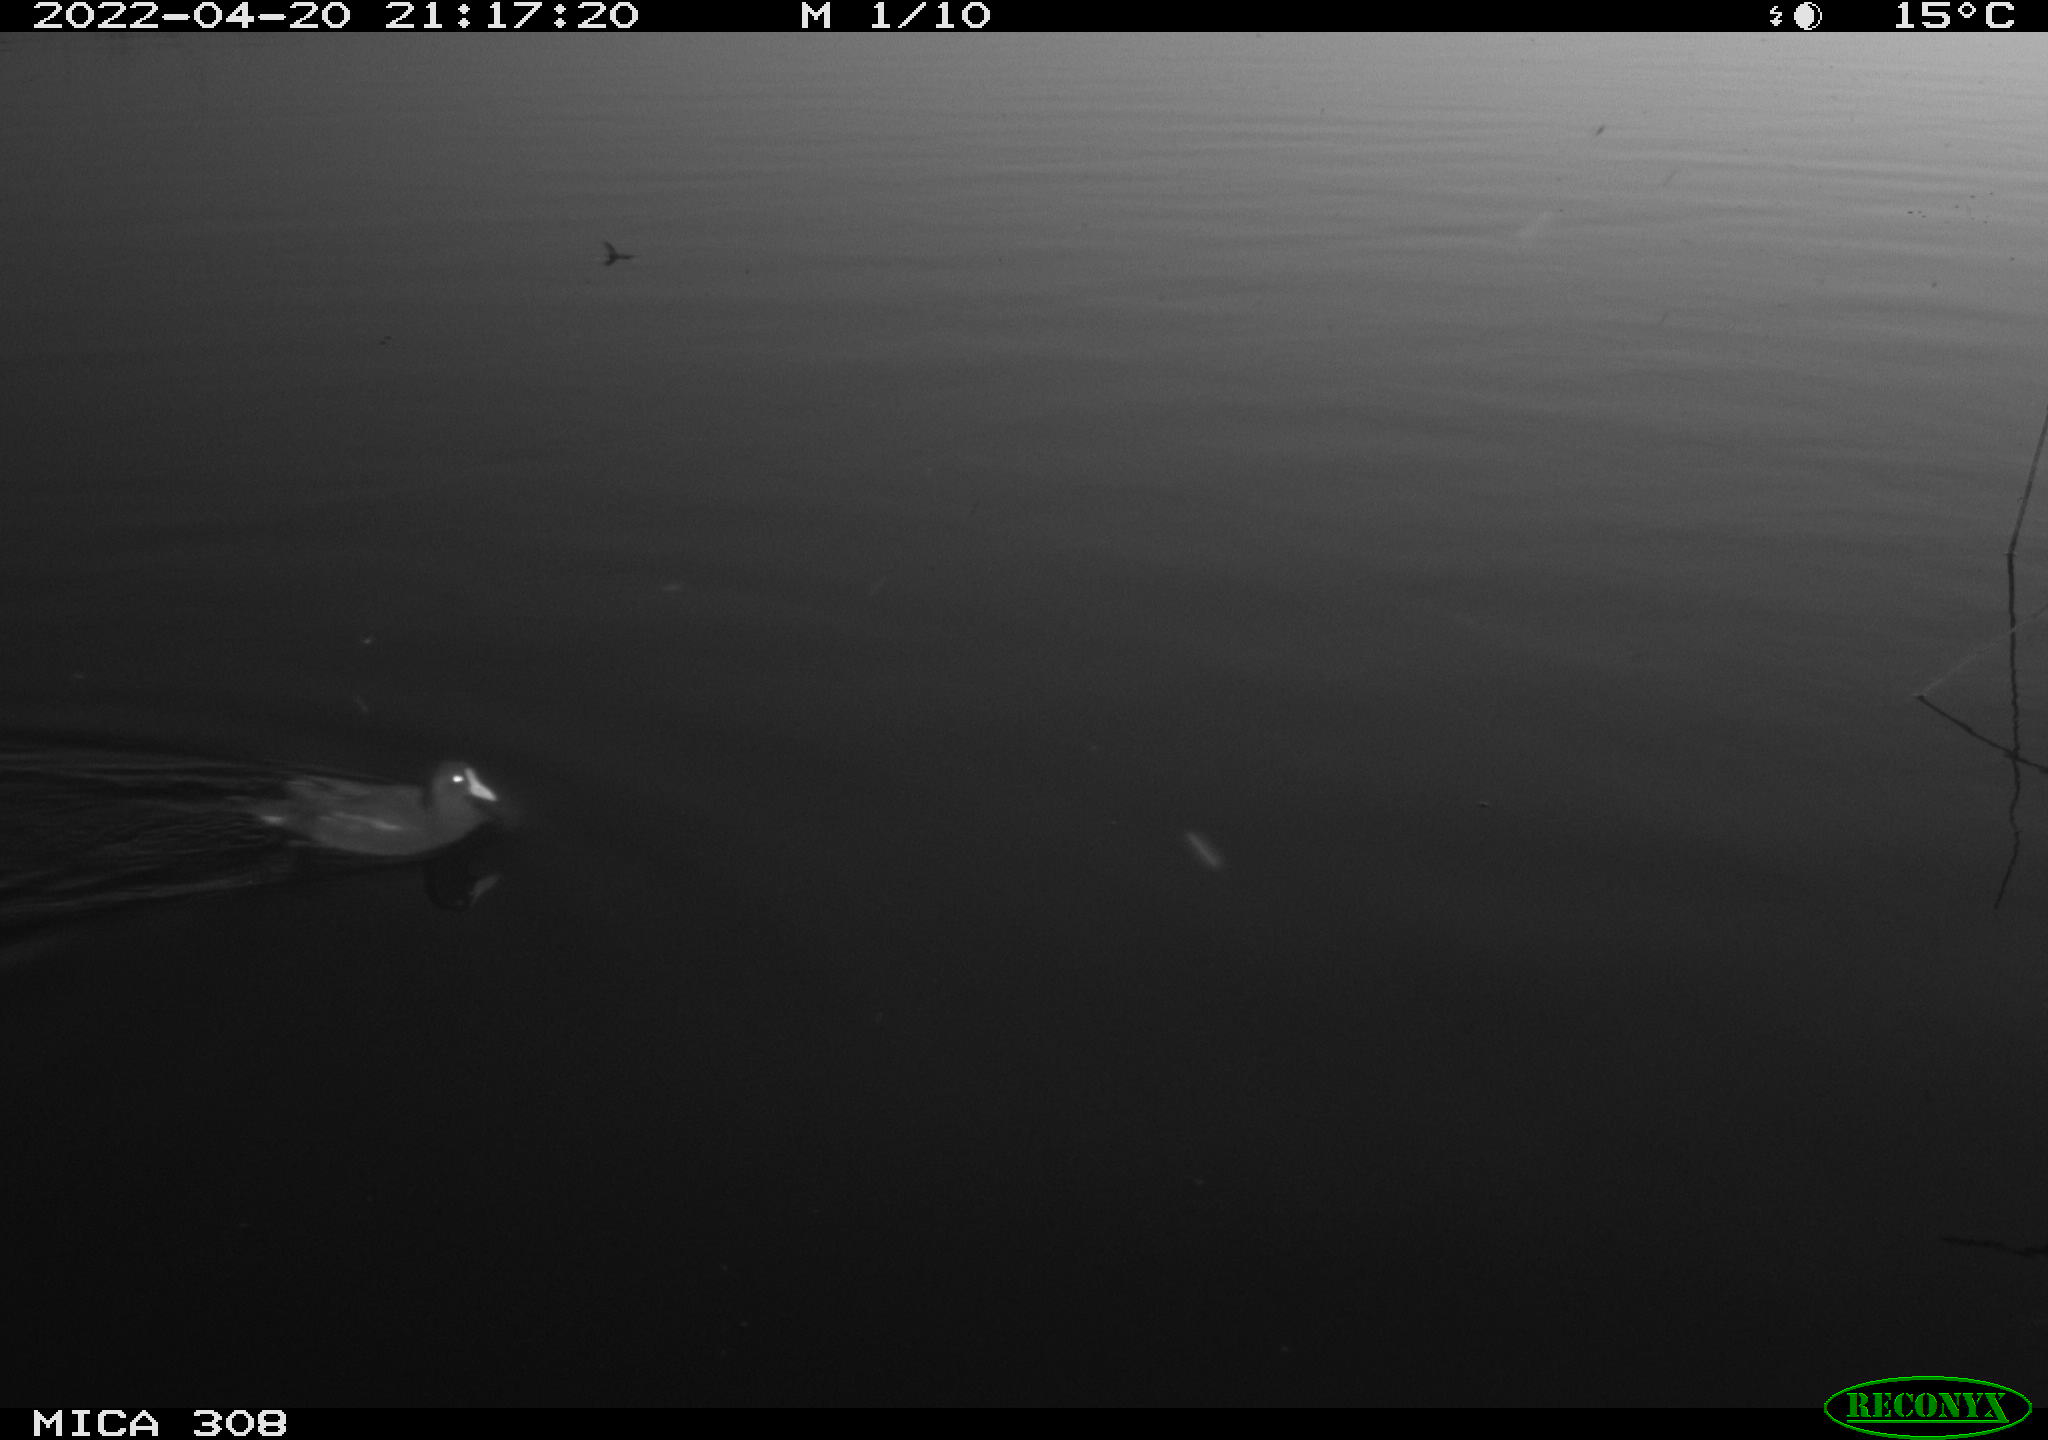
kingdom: Animalia
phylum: Chordata
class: Aves
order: Gruiformes
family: Rallidae
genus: Gallinula
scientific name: Gallinula chloropus
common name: Common moorhen
